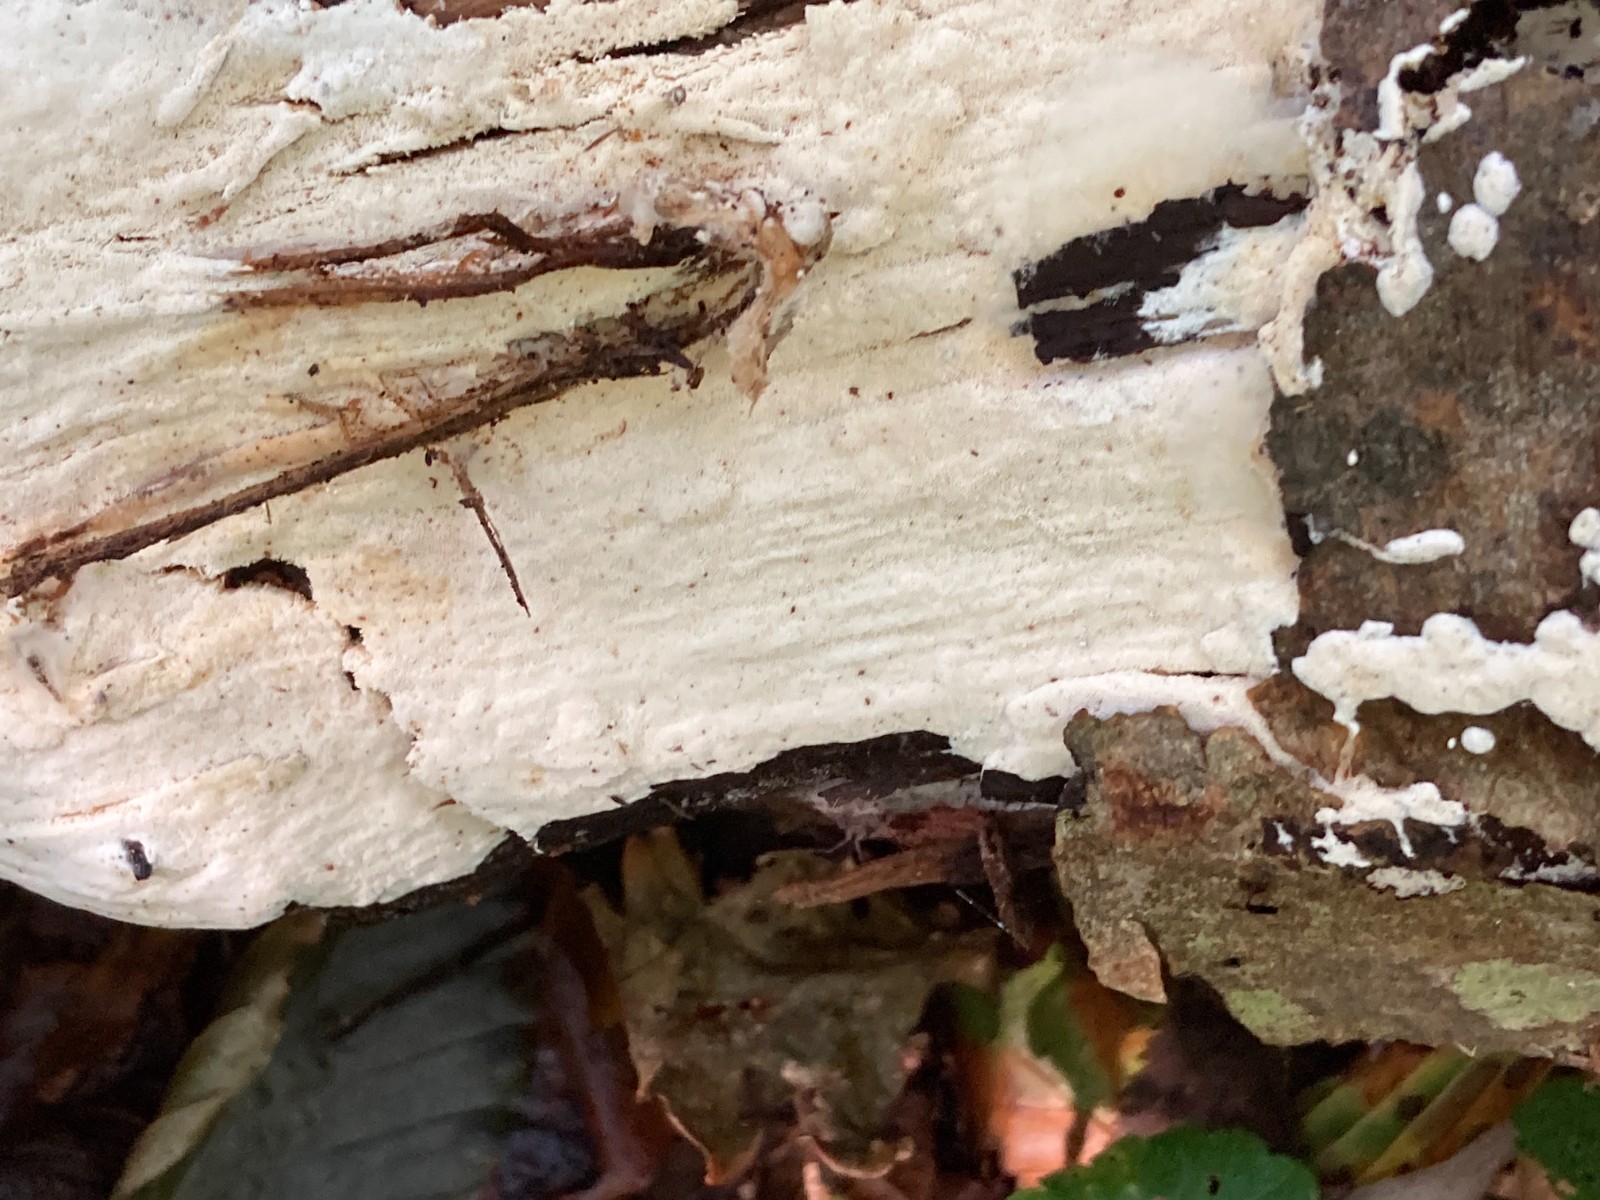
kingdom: Fungi
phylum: Basidiomycota
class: Agaricomycetes
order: Hymenochaetales
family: Rickenellaceae
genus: Sidera
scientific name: Sidera vulgaris
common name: fin flødeporesvamp
